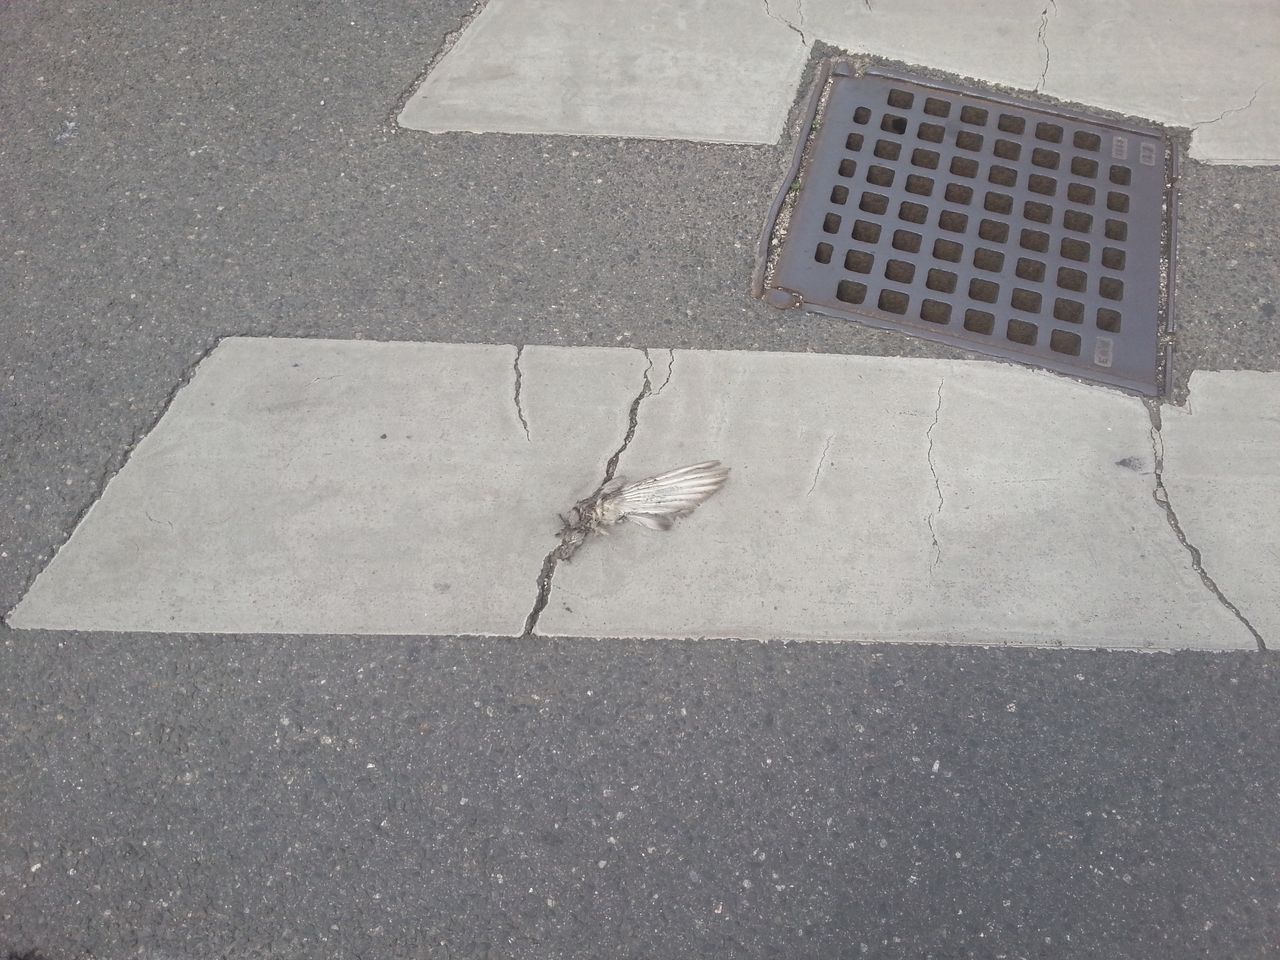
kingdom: Animalia
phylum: Chordata
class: Aves
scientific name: Aves
